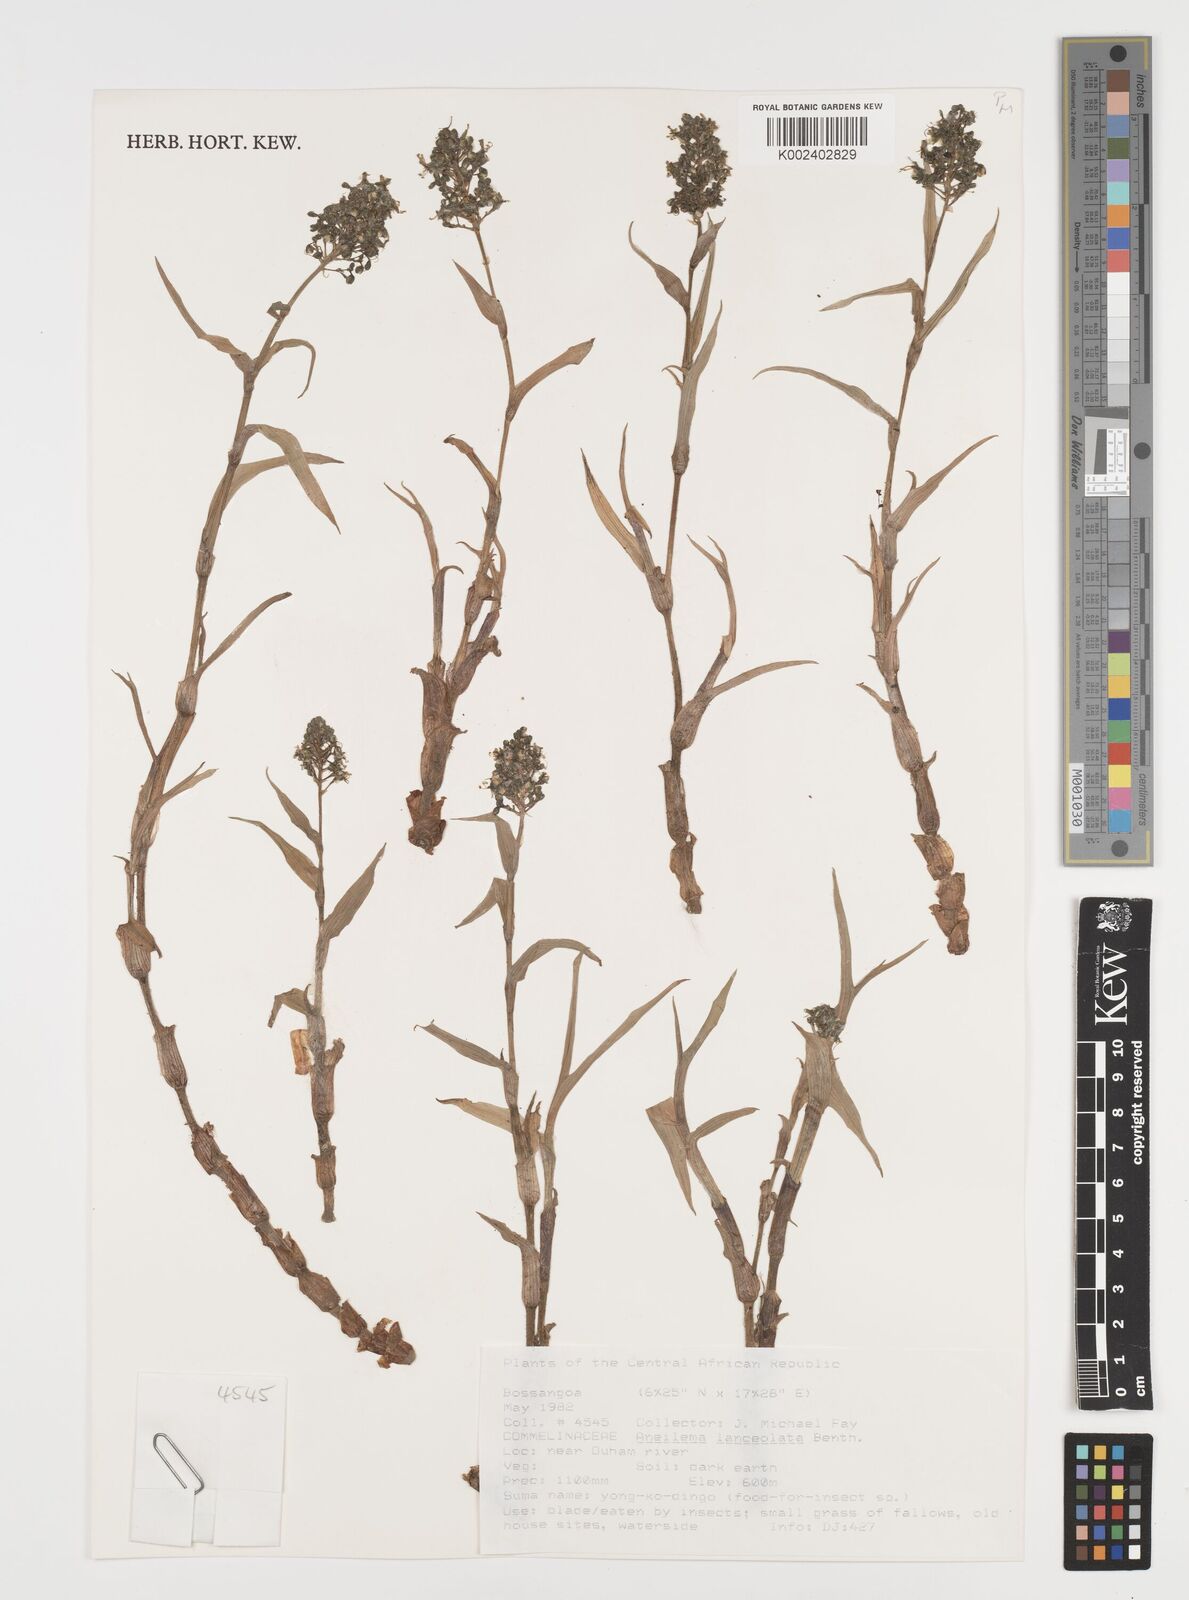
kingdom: Plantae
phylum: Tracheophyta
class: Liliopsida
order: Commelinales
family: Commelinaceae
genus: Aneilema
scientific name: Aneilema lanceolatum
